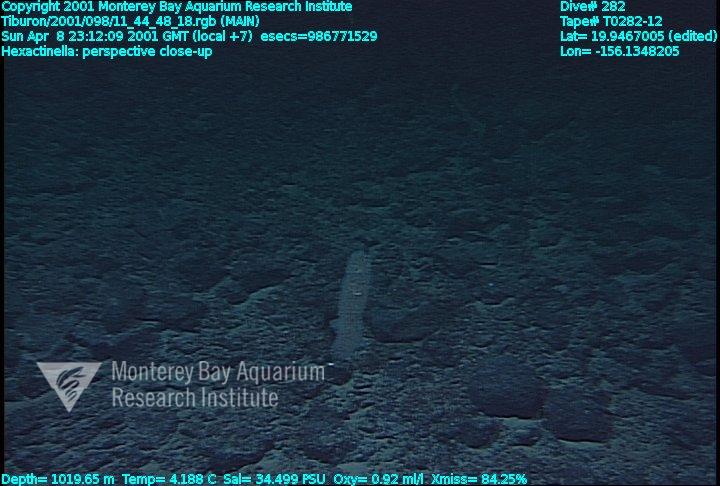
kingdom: Animalia
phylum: Porifera
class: Hexactinellida
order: Sceptrulophora
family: Tretodictyidae
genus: Hexactinella
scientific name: Hexactinella
